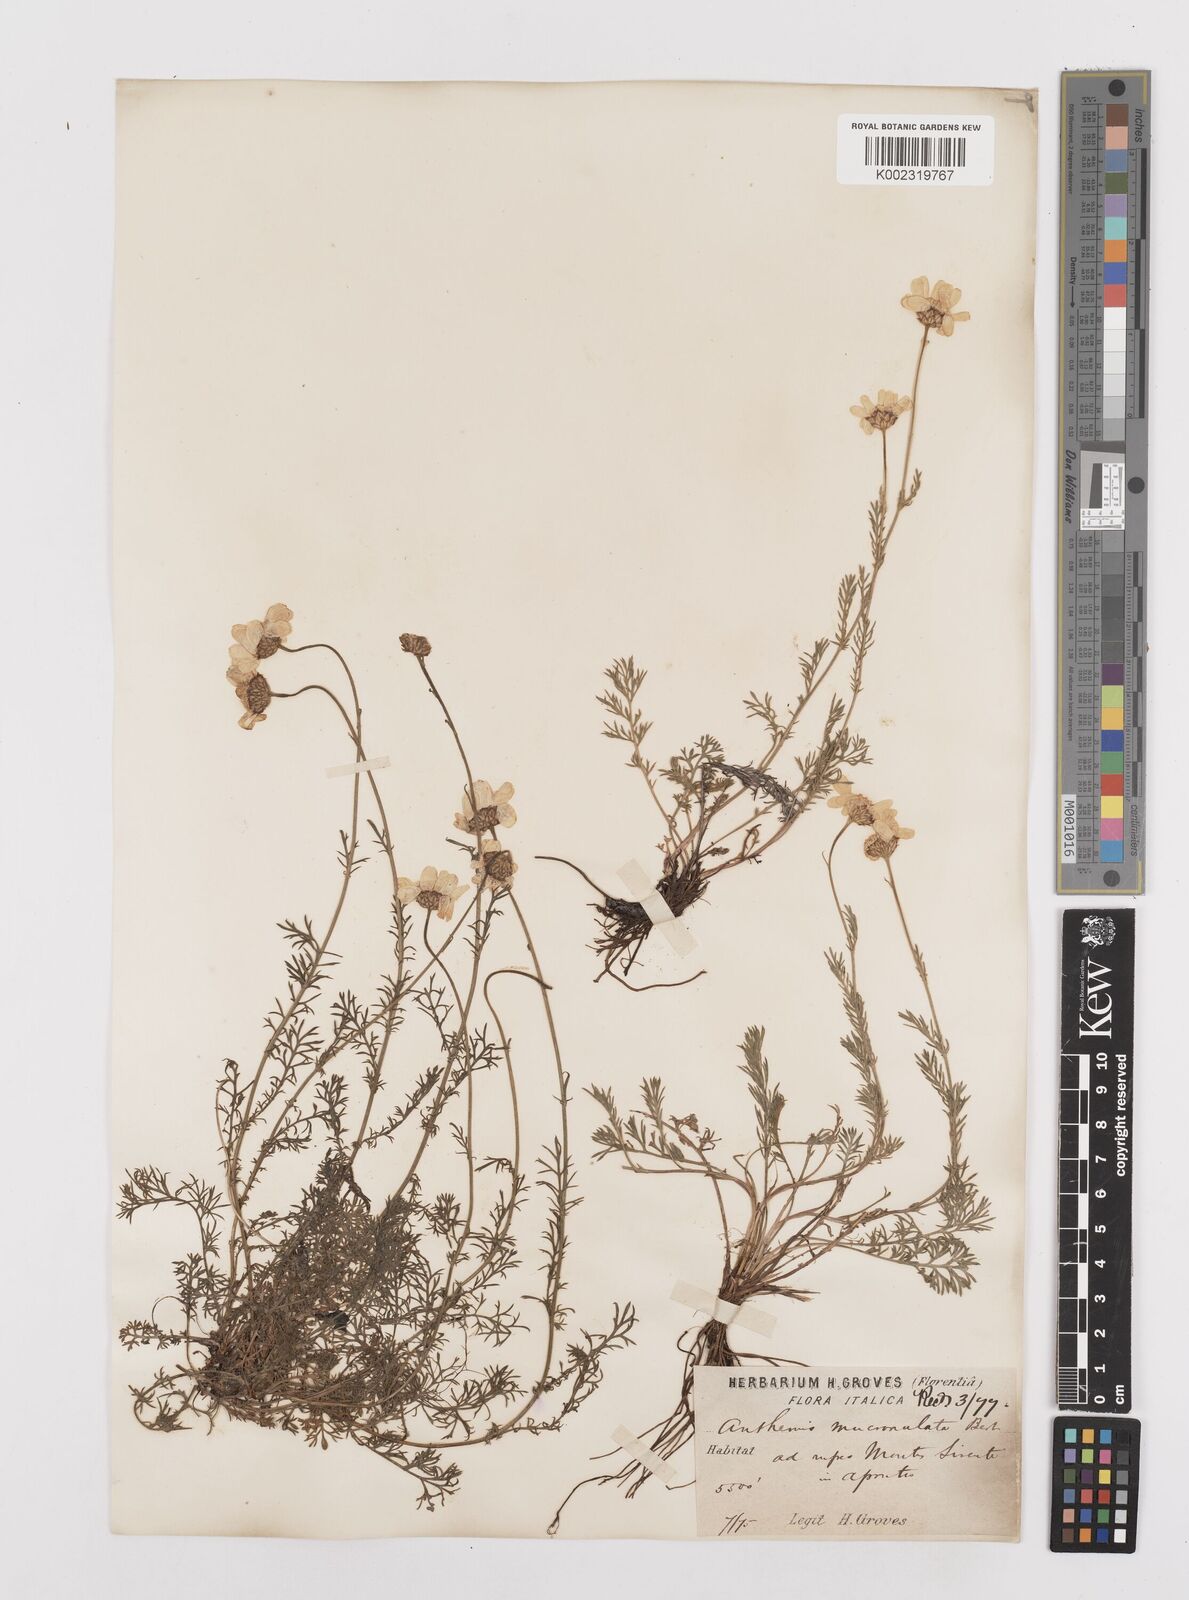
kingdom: Plantae
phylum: Tracheophyta
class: Magnoliopsida
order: Asterales
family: Asteraceae
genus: Achillea
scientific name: Achillea barrelieri
